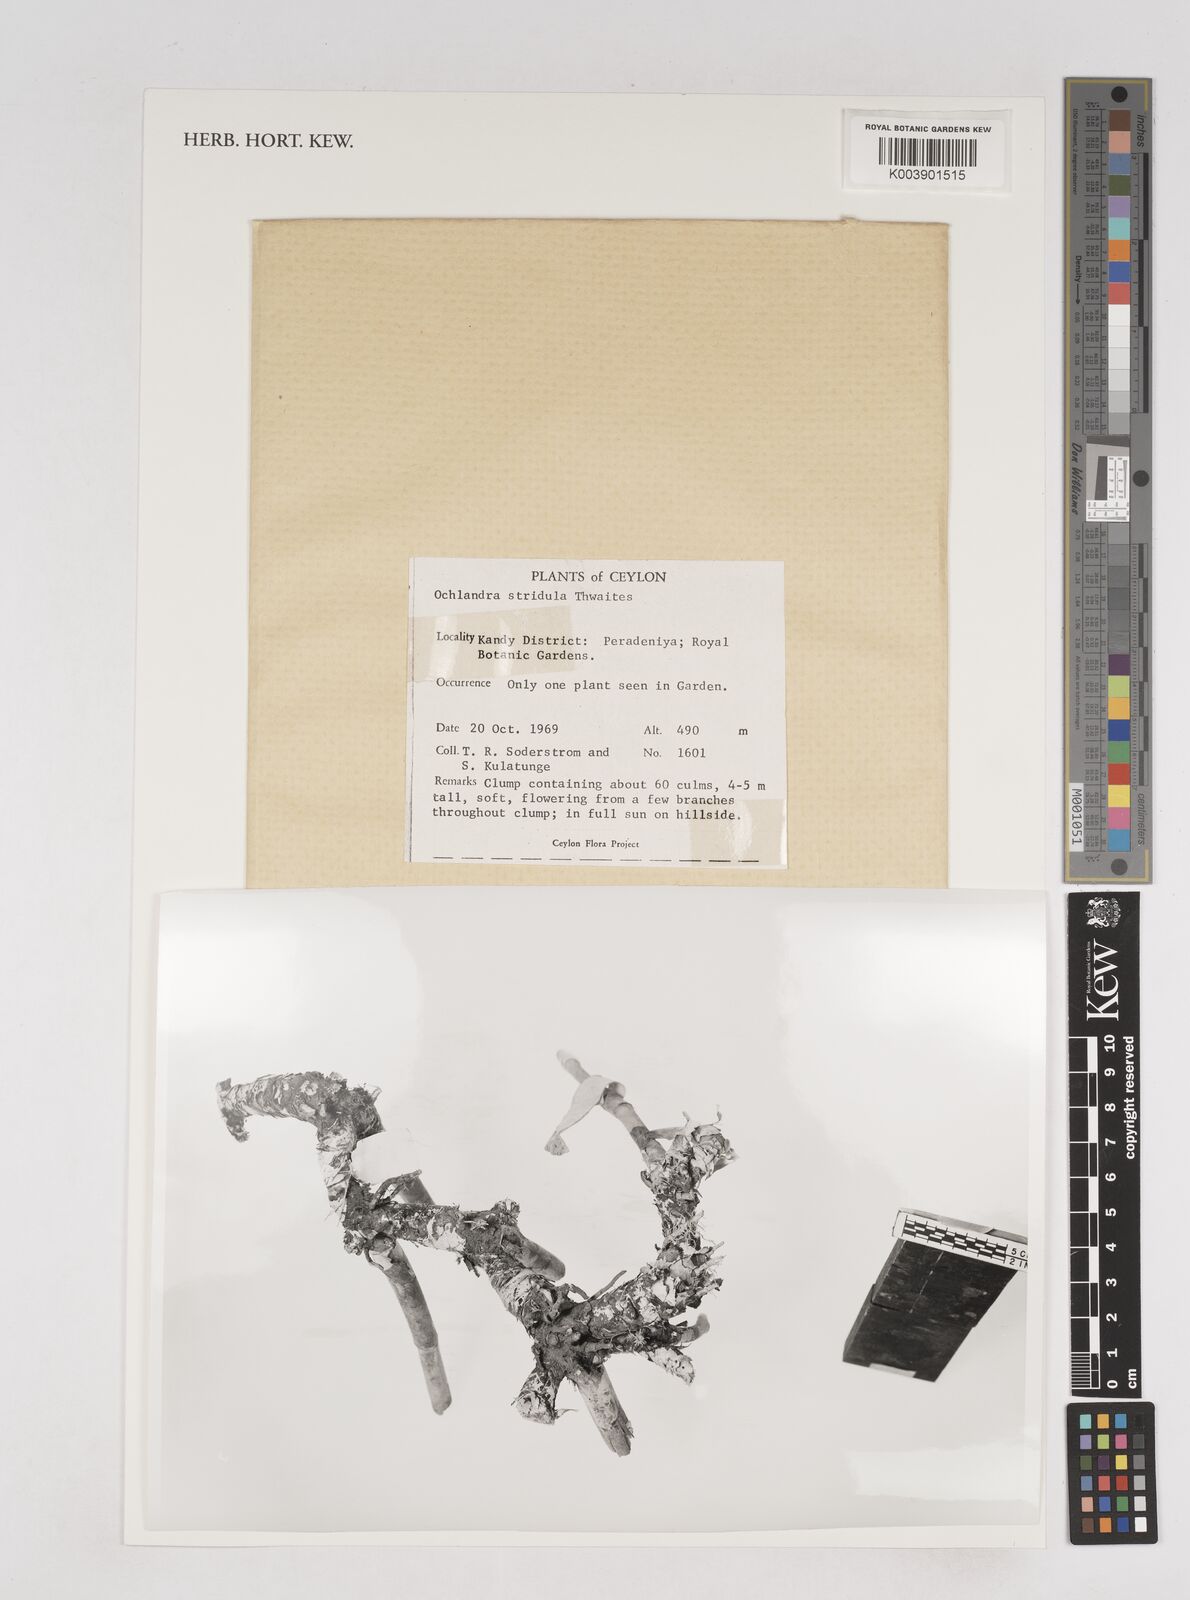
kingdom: Plantae
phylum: Tracheophyta
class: Liliopsida
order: Poales
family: Poaceae
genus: Ochlandra
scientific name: Ochlandra stridula
